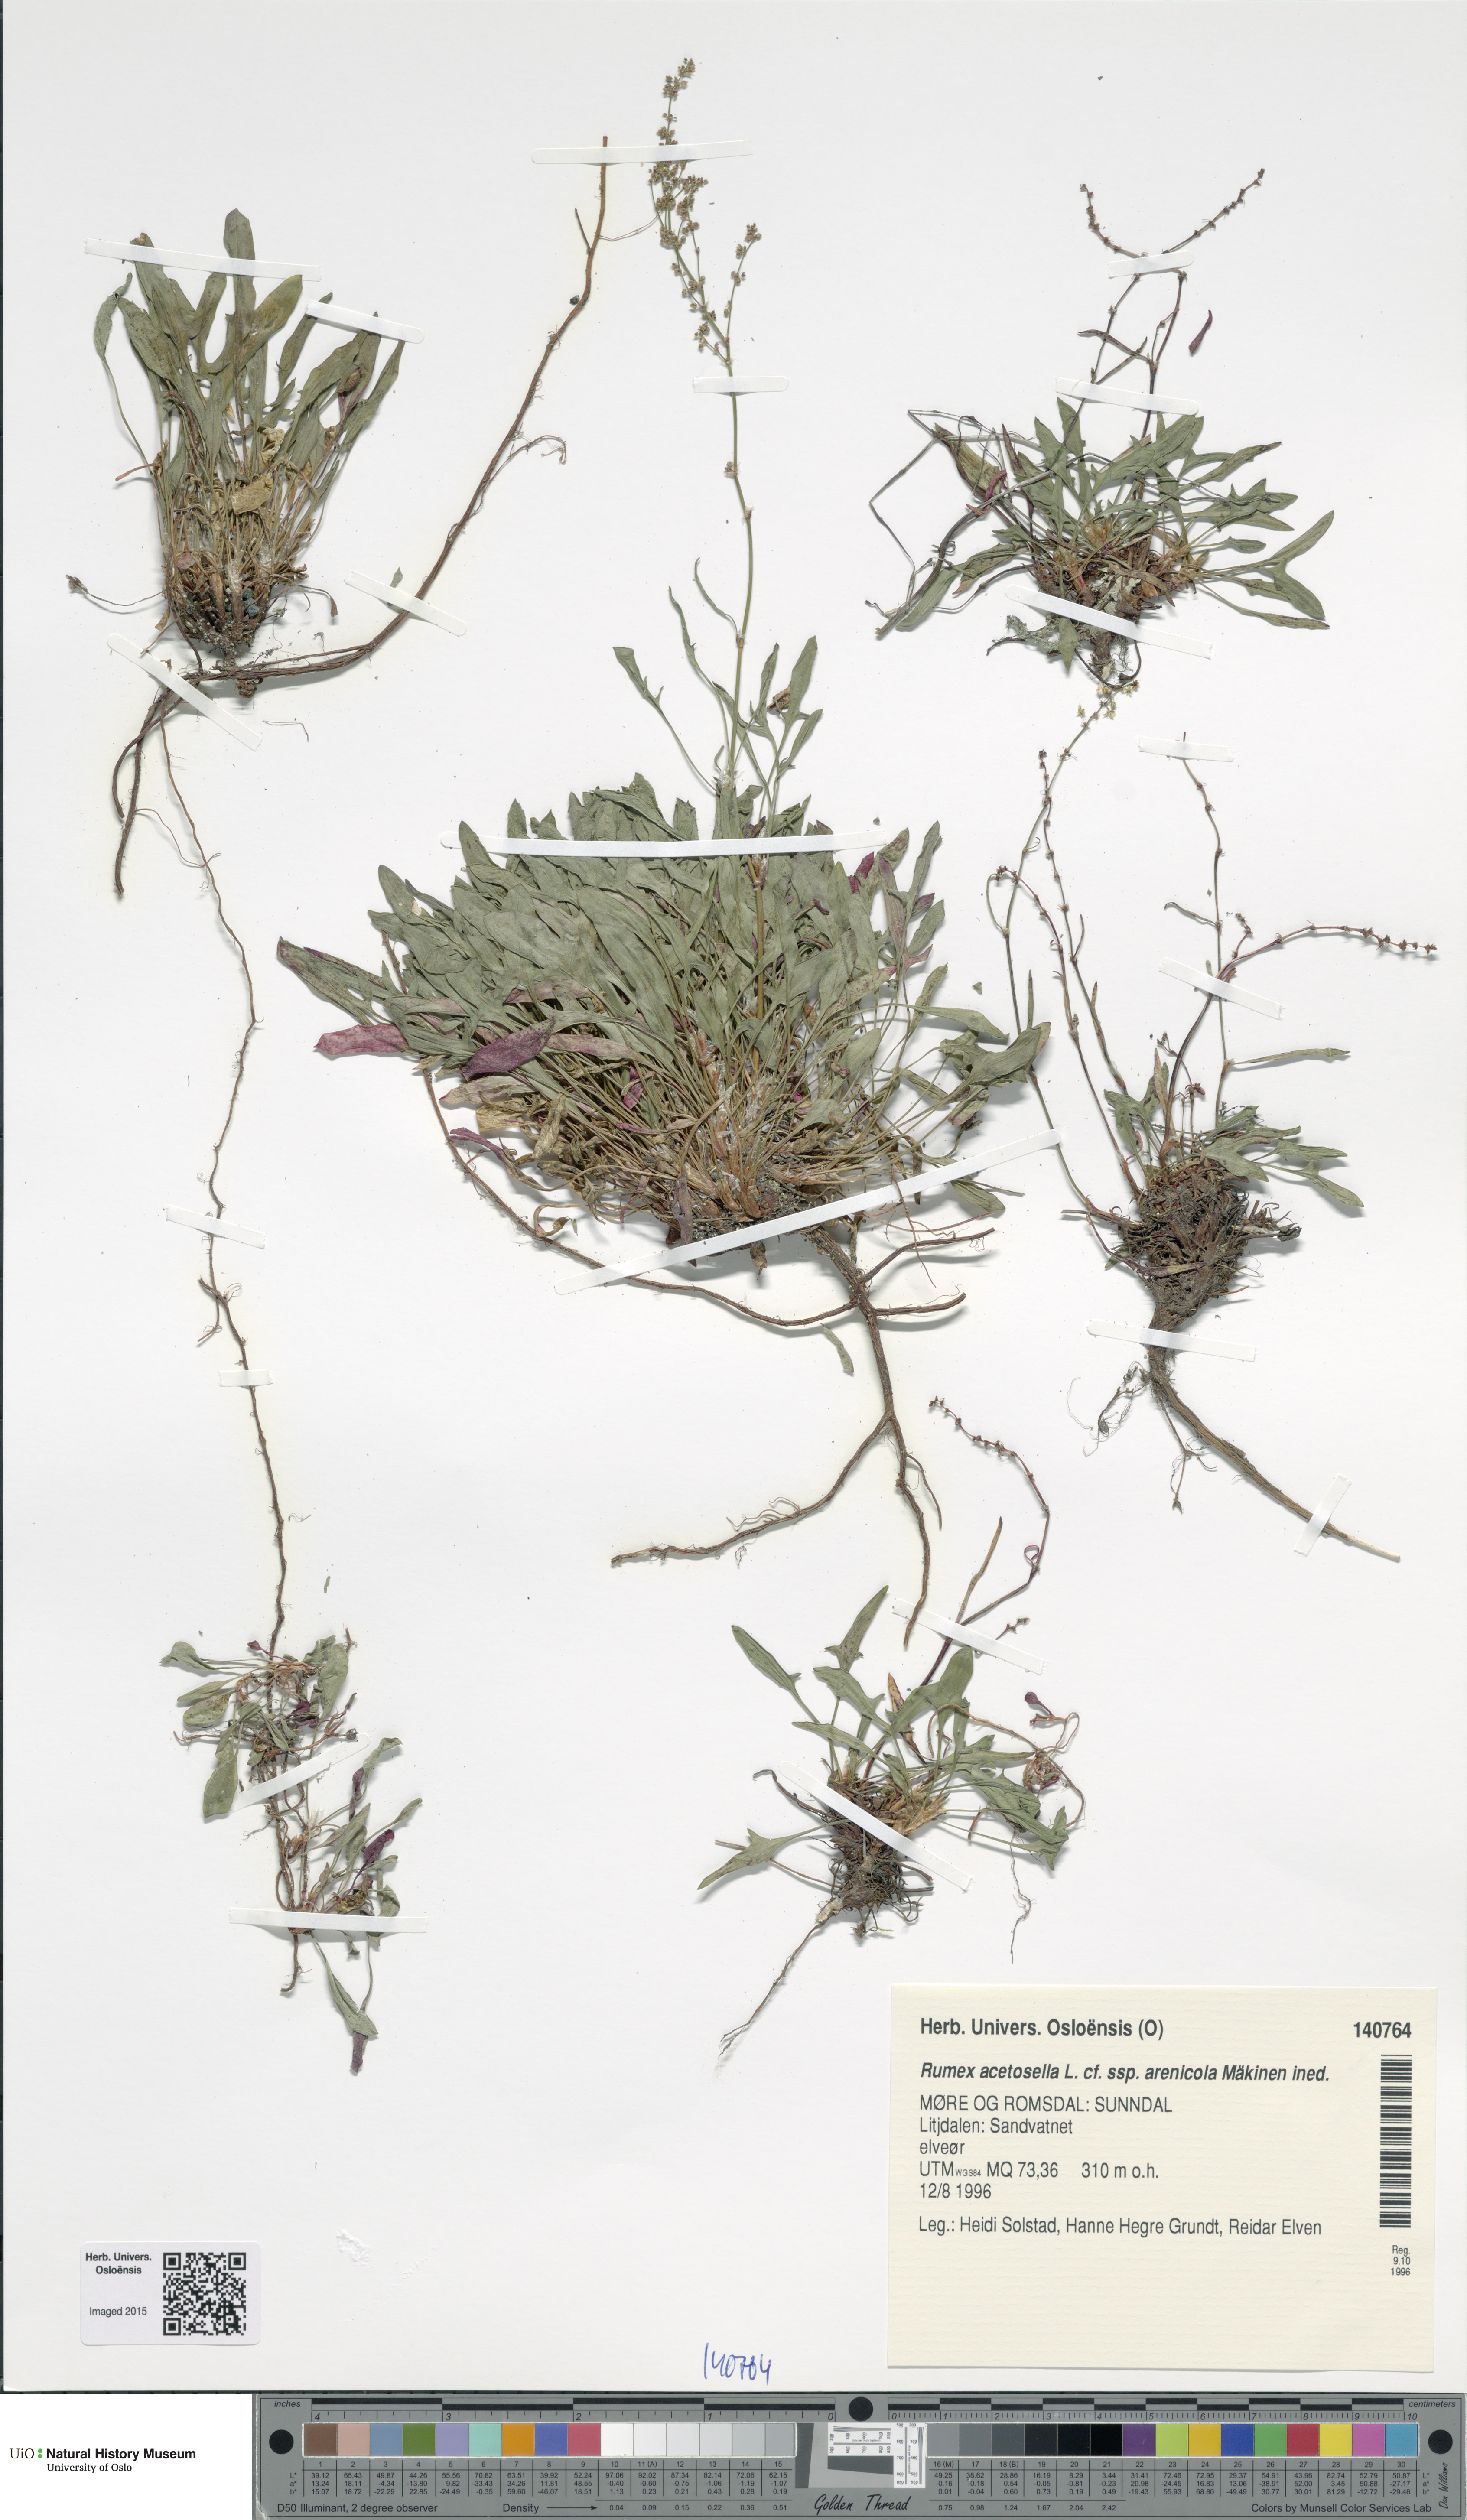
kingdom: Plantae
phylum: Tracheophyta
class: Magnoliopsida
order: Caryophyllales
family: Polygonaceae
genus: Rumex
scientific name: Rumex acetosella
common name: Common sheep sorrel
